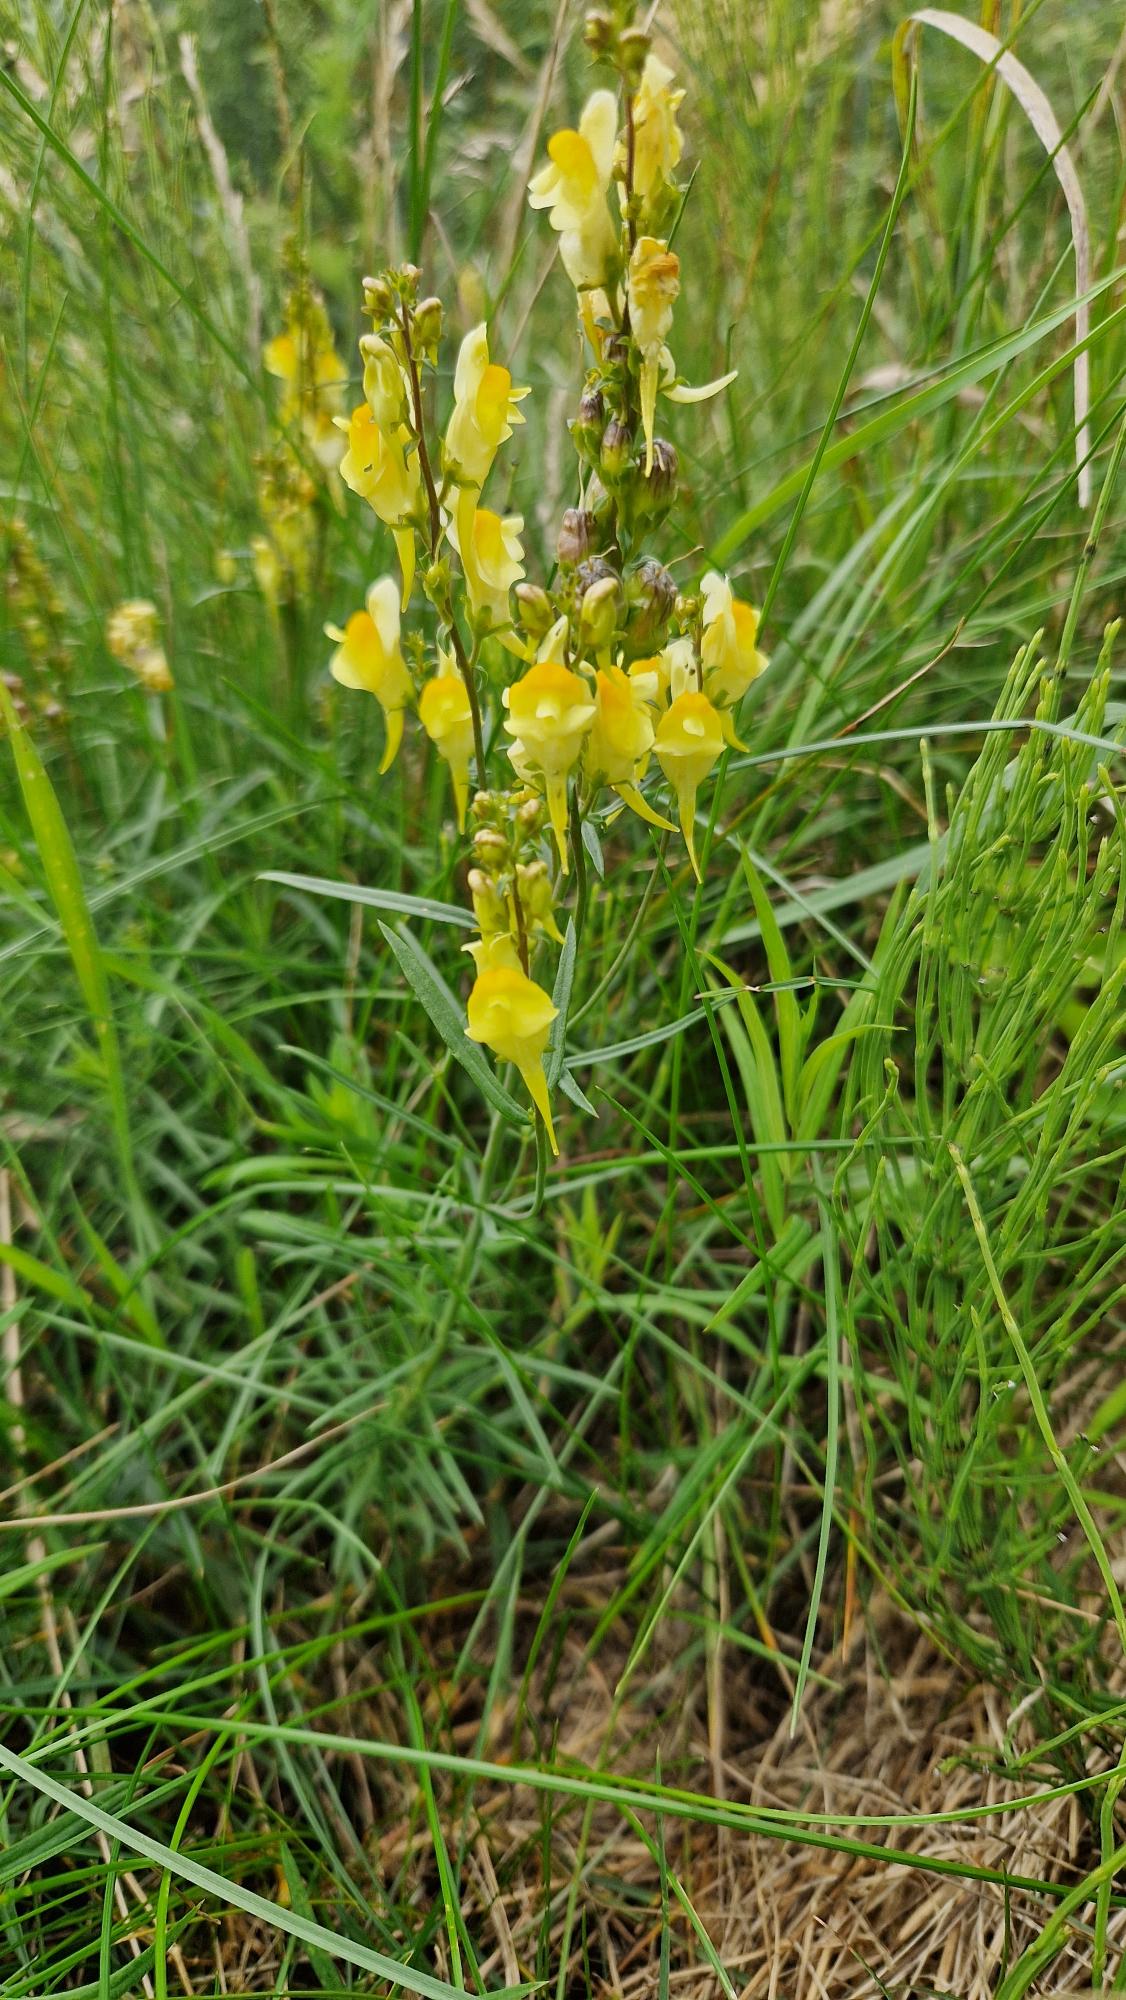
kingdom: Plantae
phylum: Tracheophyta
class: Magnoliopsida
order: Lamiales
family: Plantaginaceae
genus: Linaria
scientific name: Linaria vulgaris
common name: Almindelig torskemund
